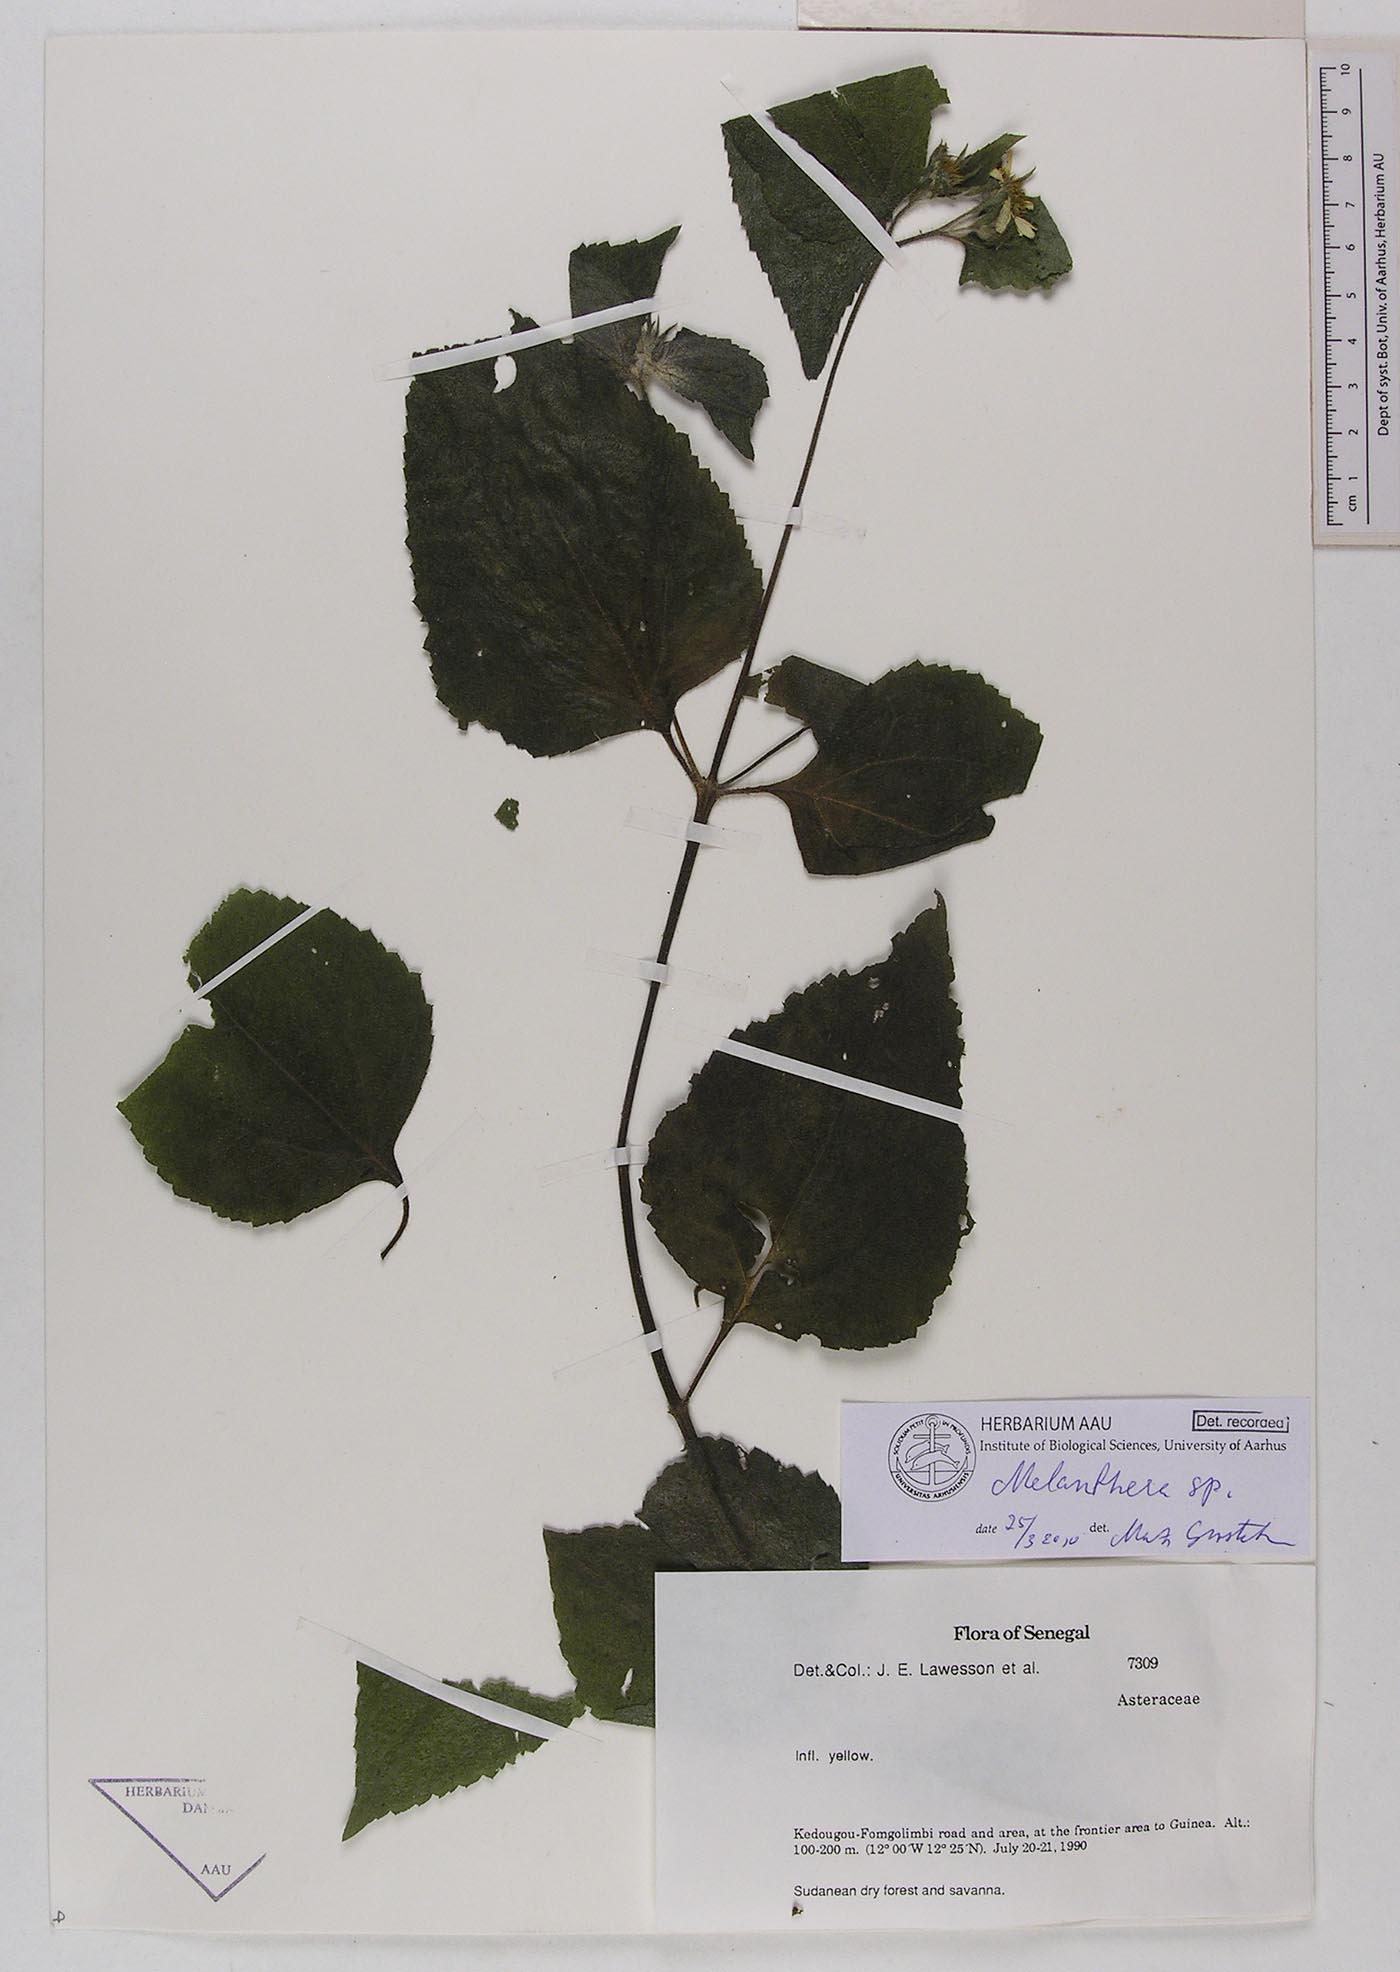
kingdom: Plantae
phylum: Tracheophyta
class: Magnoliopsida
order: Asterales
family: Asteraceae
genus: Melanthera
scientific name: Melanthera
